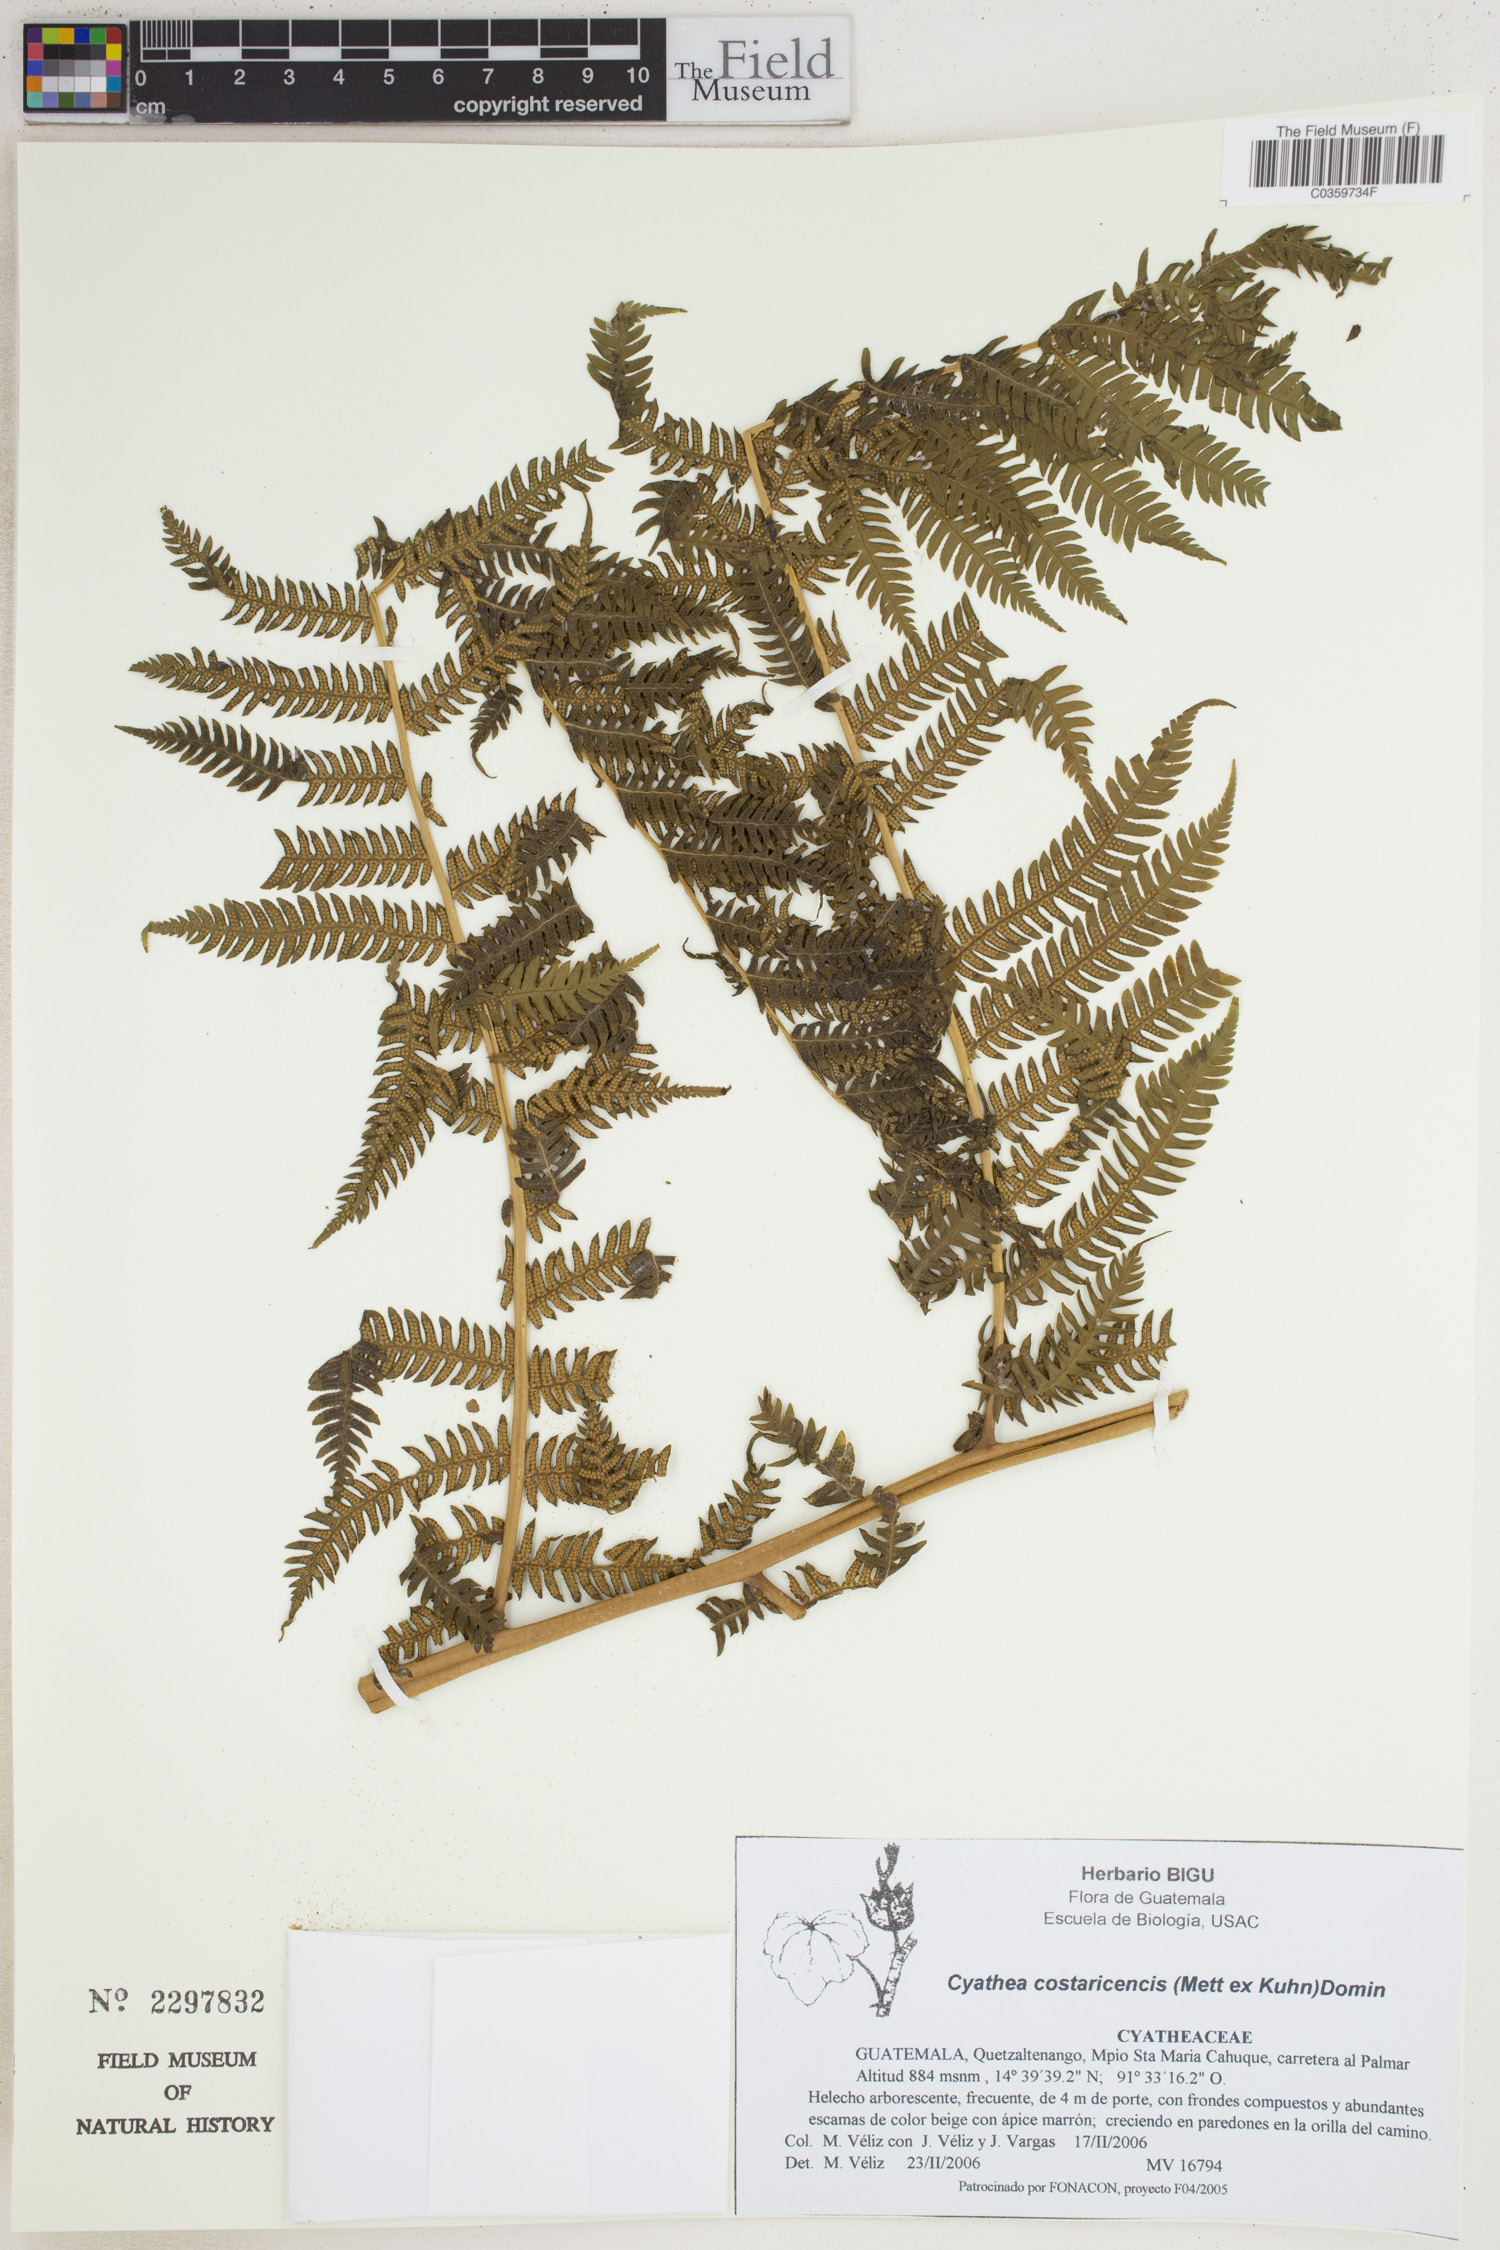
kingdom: Plantae
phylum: Tracheophyta
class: Polypodiopsida
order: Cyatheales
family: Cyatheaceae
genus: Cyathea
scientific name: Cyathea costaricensis
